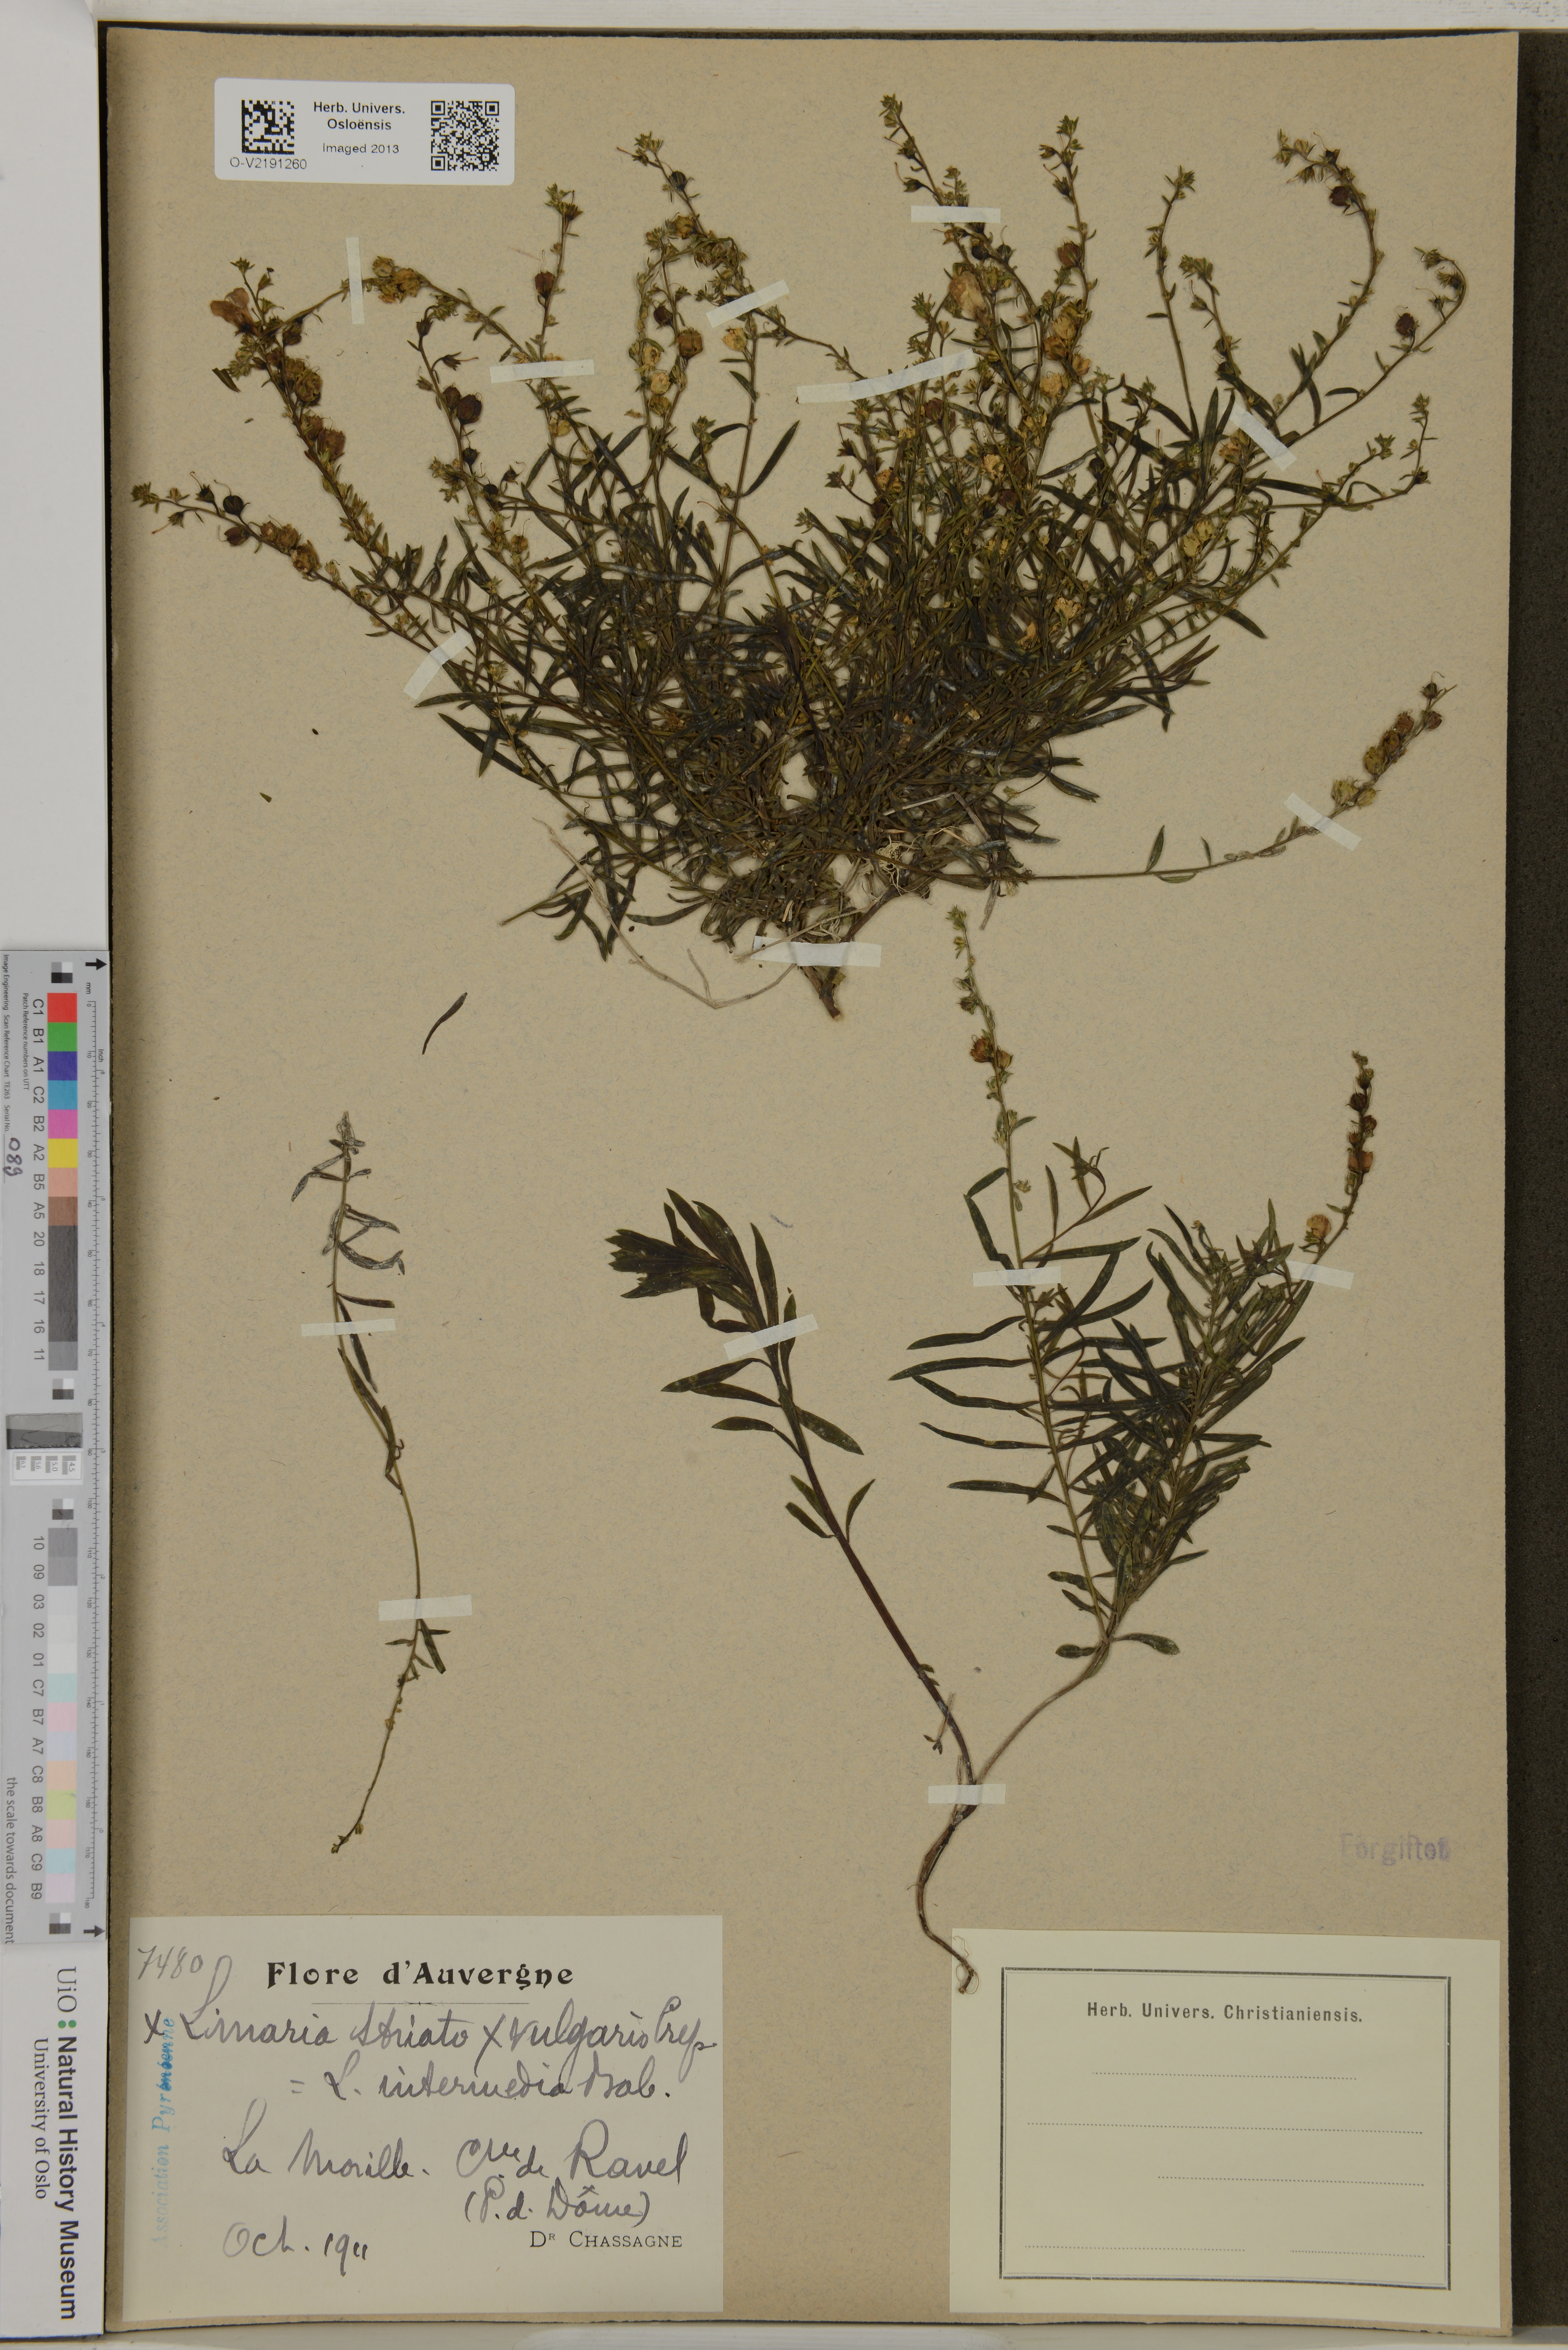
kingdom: Plantae
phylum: Tracheophyta
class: Magnoliopsida
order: Lamiales
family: Plantaginaceae
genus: Linaria
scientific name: Linaria
